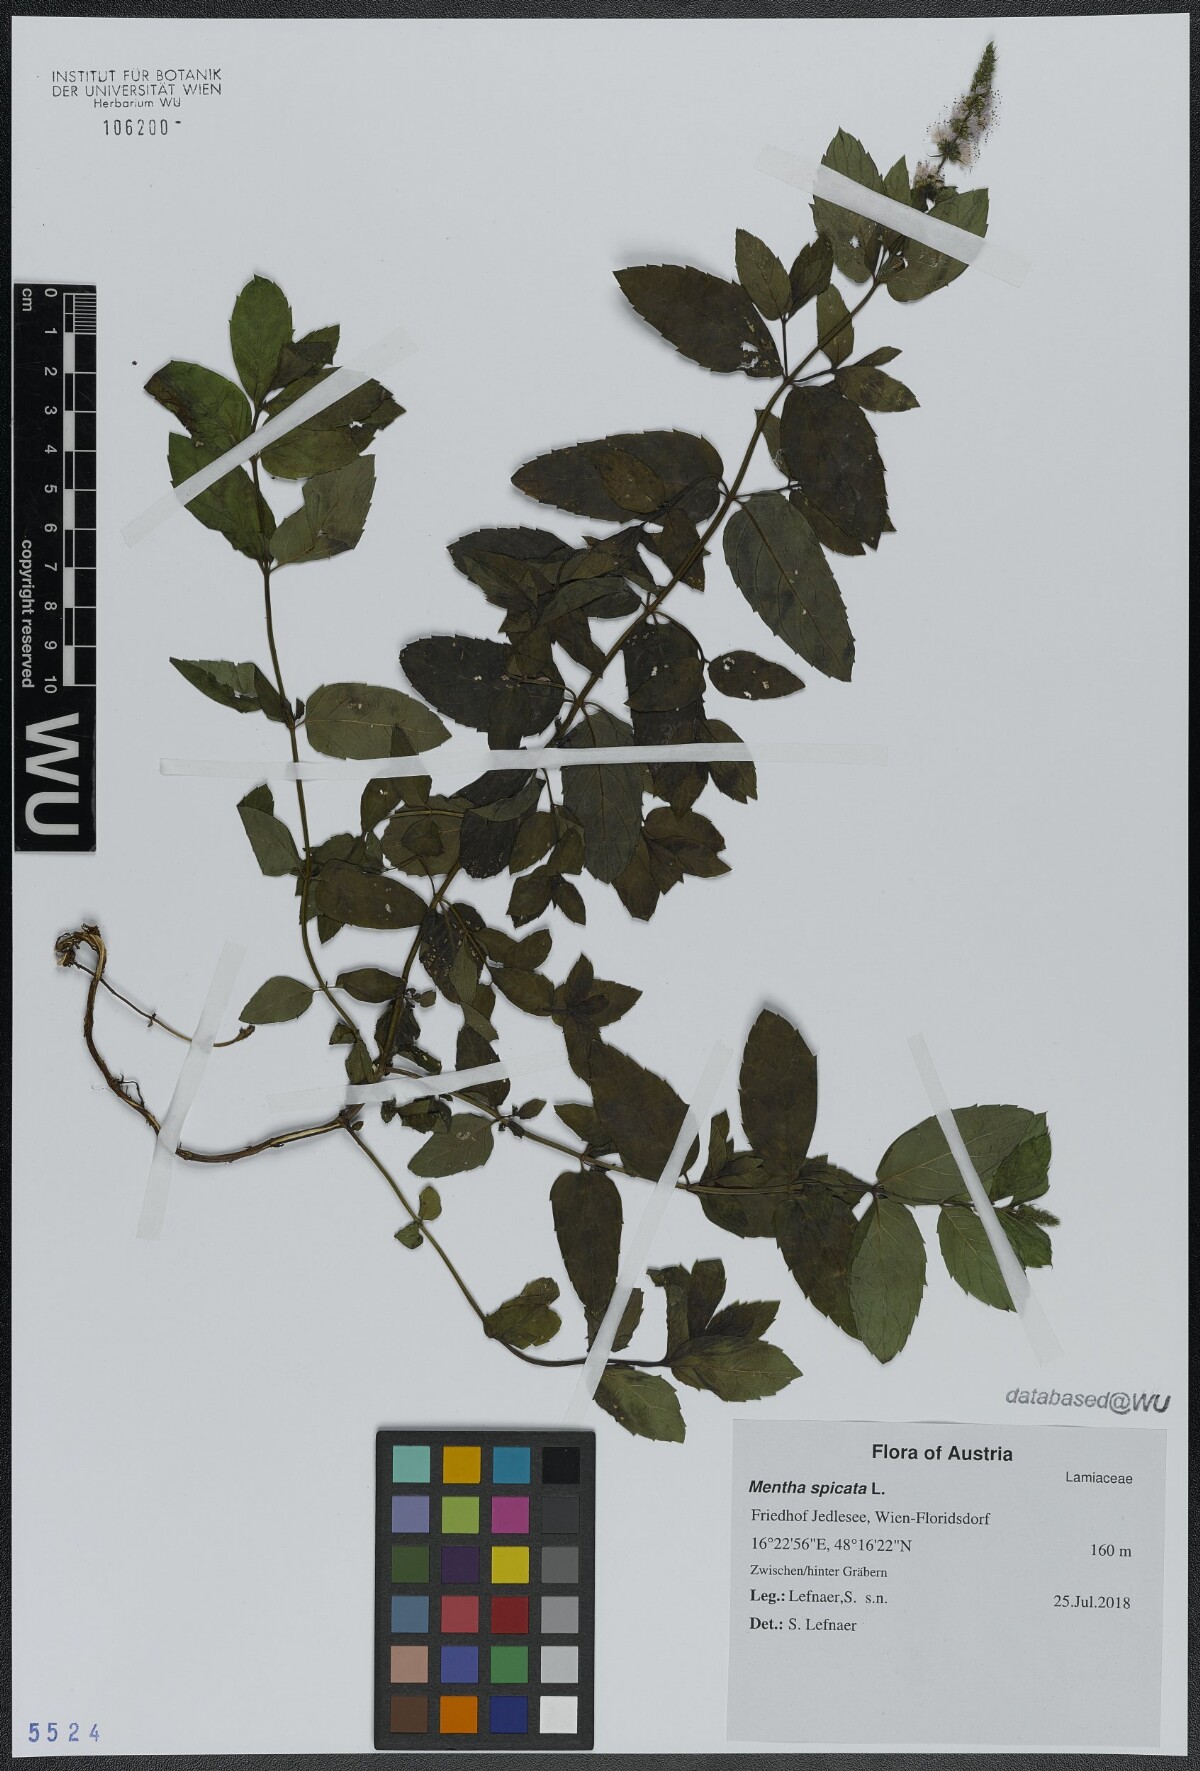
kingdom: Plantae
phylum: Tracheophyta
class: Magnoliopsida
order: Lamiales
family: Lamiaceae
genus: Mentha
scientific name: Mentha spicata
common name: Spearmint
